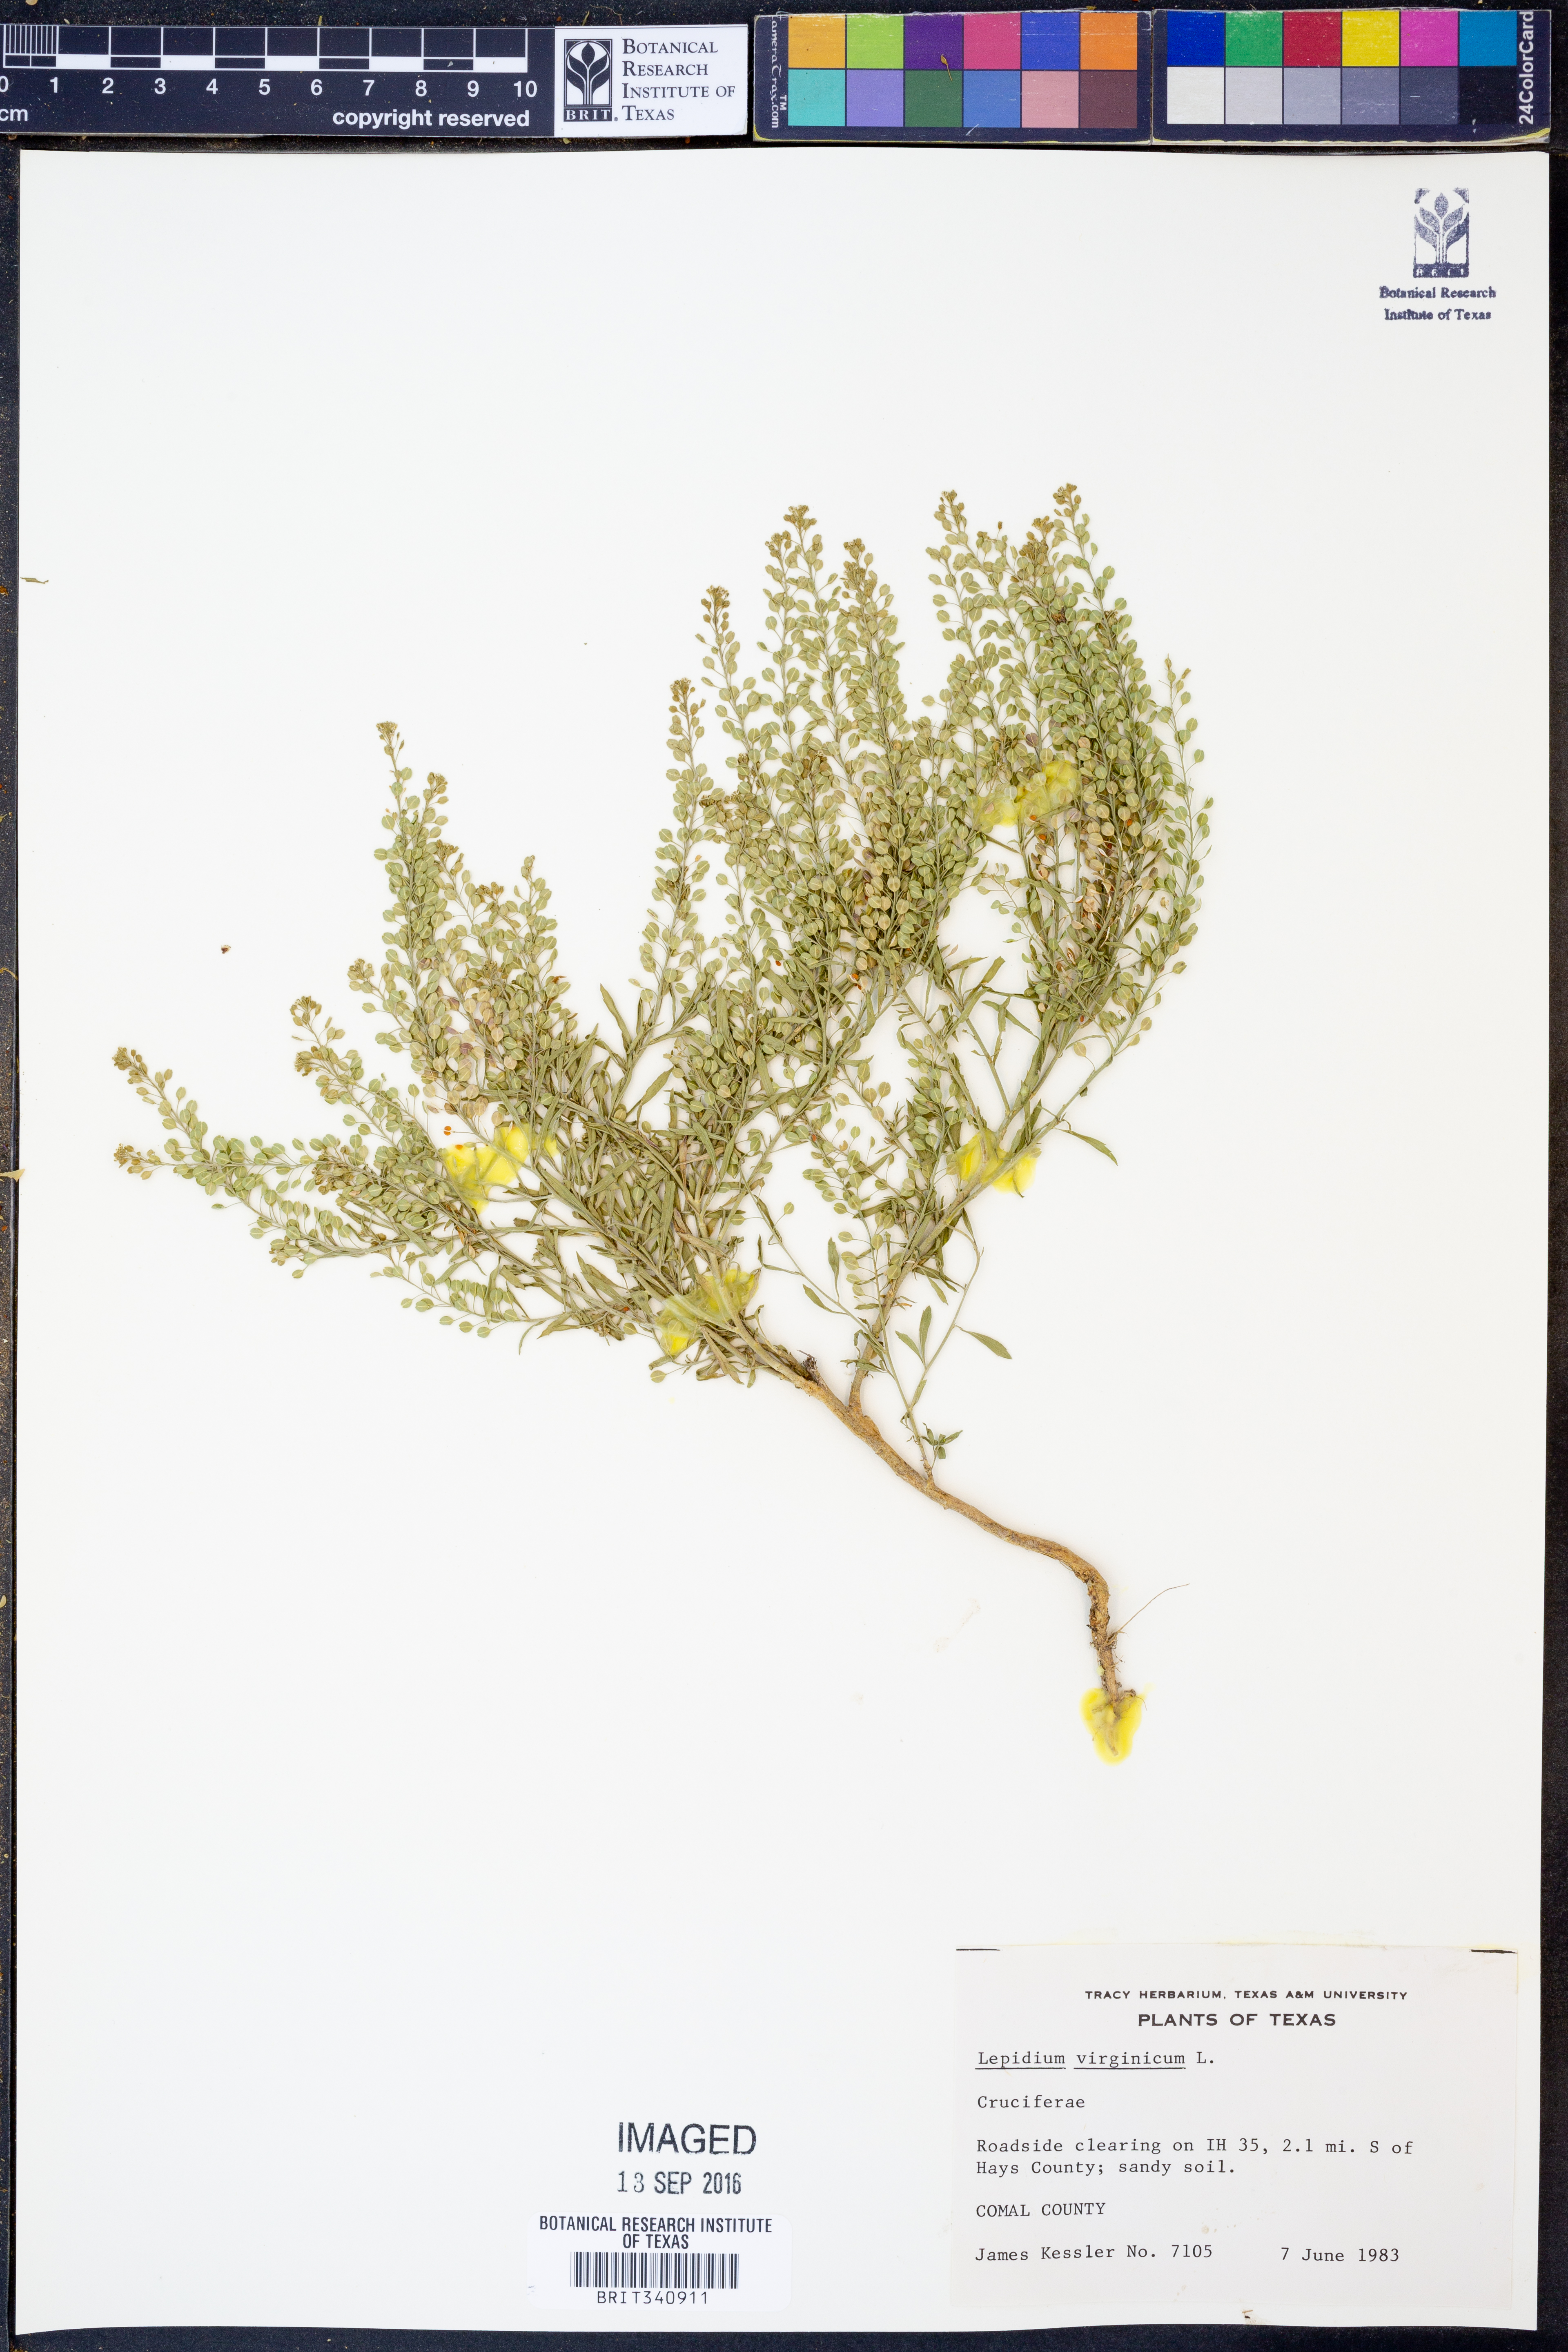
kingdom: Plantae
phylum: Tracheophyta
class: Magnoliopsida
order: Brassicales
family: Brassicaceae
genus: Lepidium
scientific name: Lepidium virginicum
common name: Least pepperwort
